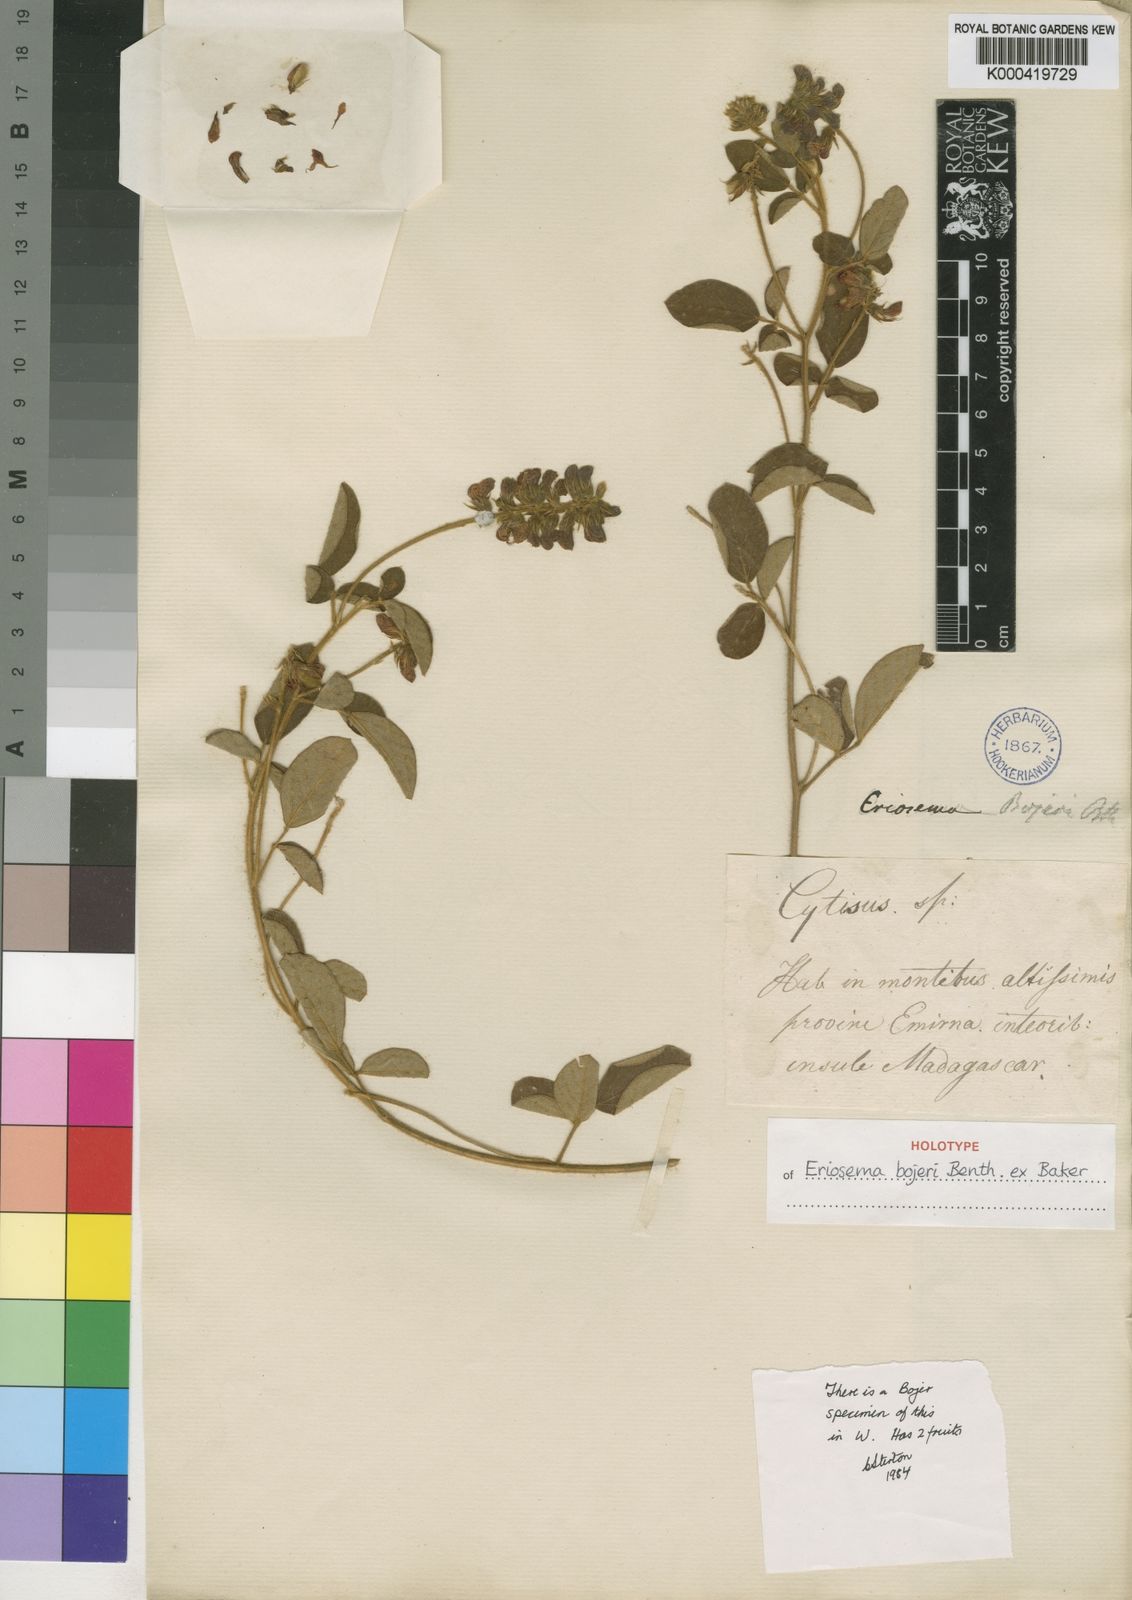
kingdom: Plantae
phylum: Tracheophyta
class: Magnoliopsida
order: Fabales
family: Fabaceae
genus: Eriosema
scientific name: Eriosema bojeri
